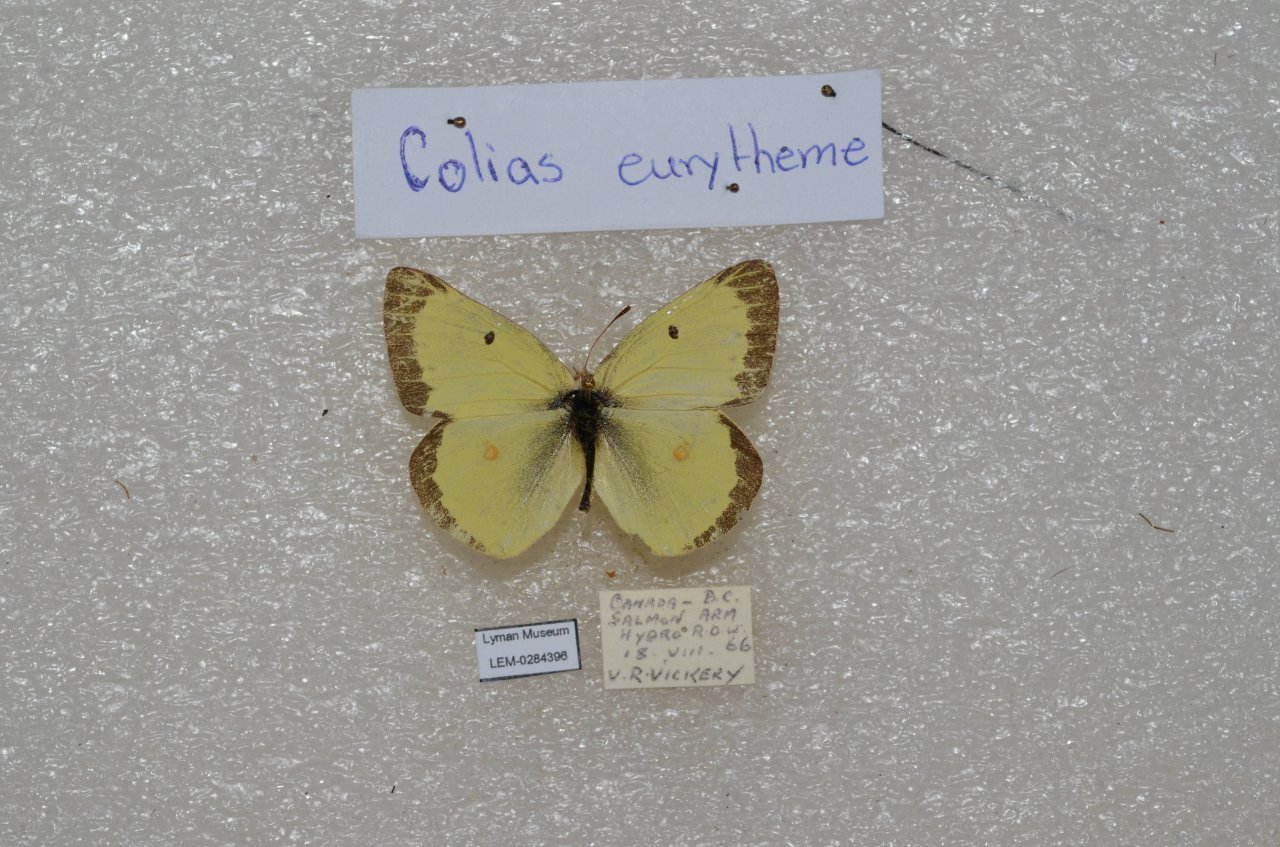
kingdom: Animalia
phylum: Arthropoda
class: Insecta
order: Lepidoptera
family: Pieridae
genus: Colias
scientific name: Colias eurytheme
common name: Orange Sulphur
